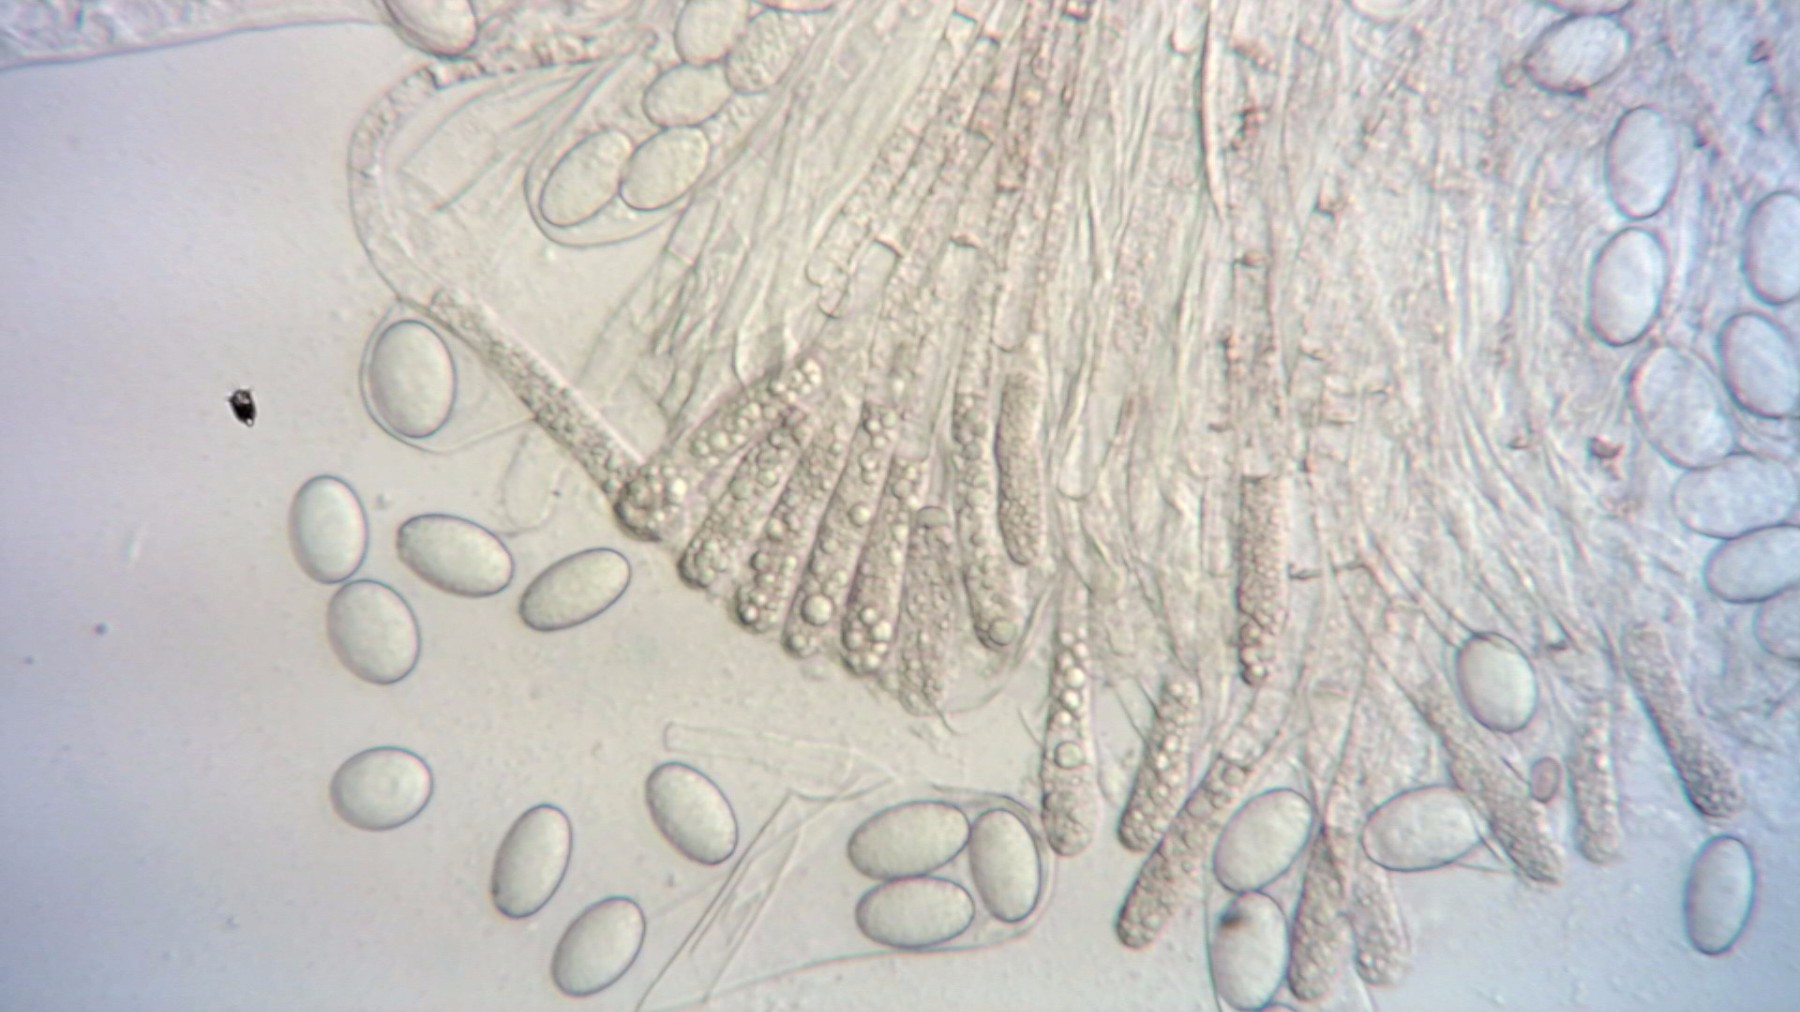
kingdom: Fungi
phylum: Ascomycota
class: Pezizomycetes
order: Pezizales
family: Pezizaceae
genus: Iodophanus
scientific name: Iodophanus carneus
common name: kødfarvet prikbæger
